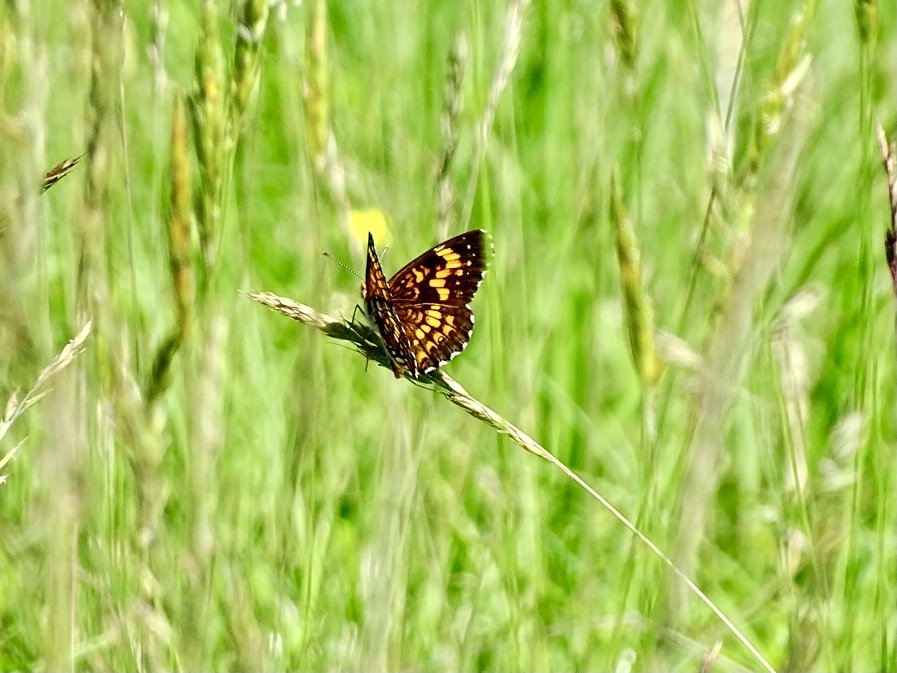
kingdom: Animalia
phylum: Arthropoda
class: Insecta
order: Lepidoptera
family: Nymphalidae
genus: Chlosyne
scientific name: Chlosyne harrisii
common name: Harris's Checkerspot
